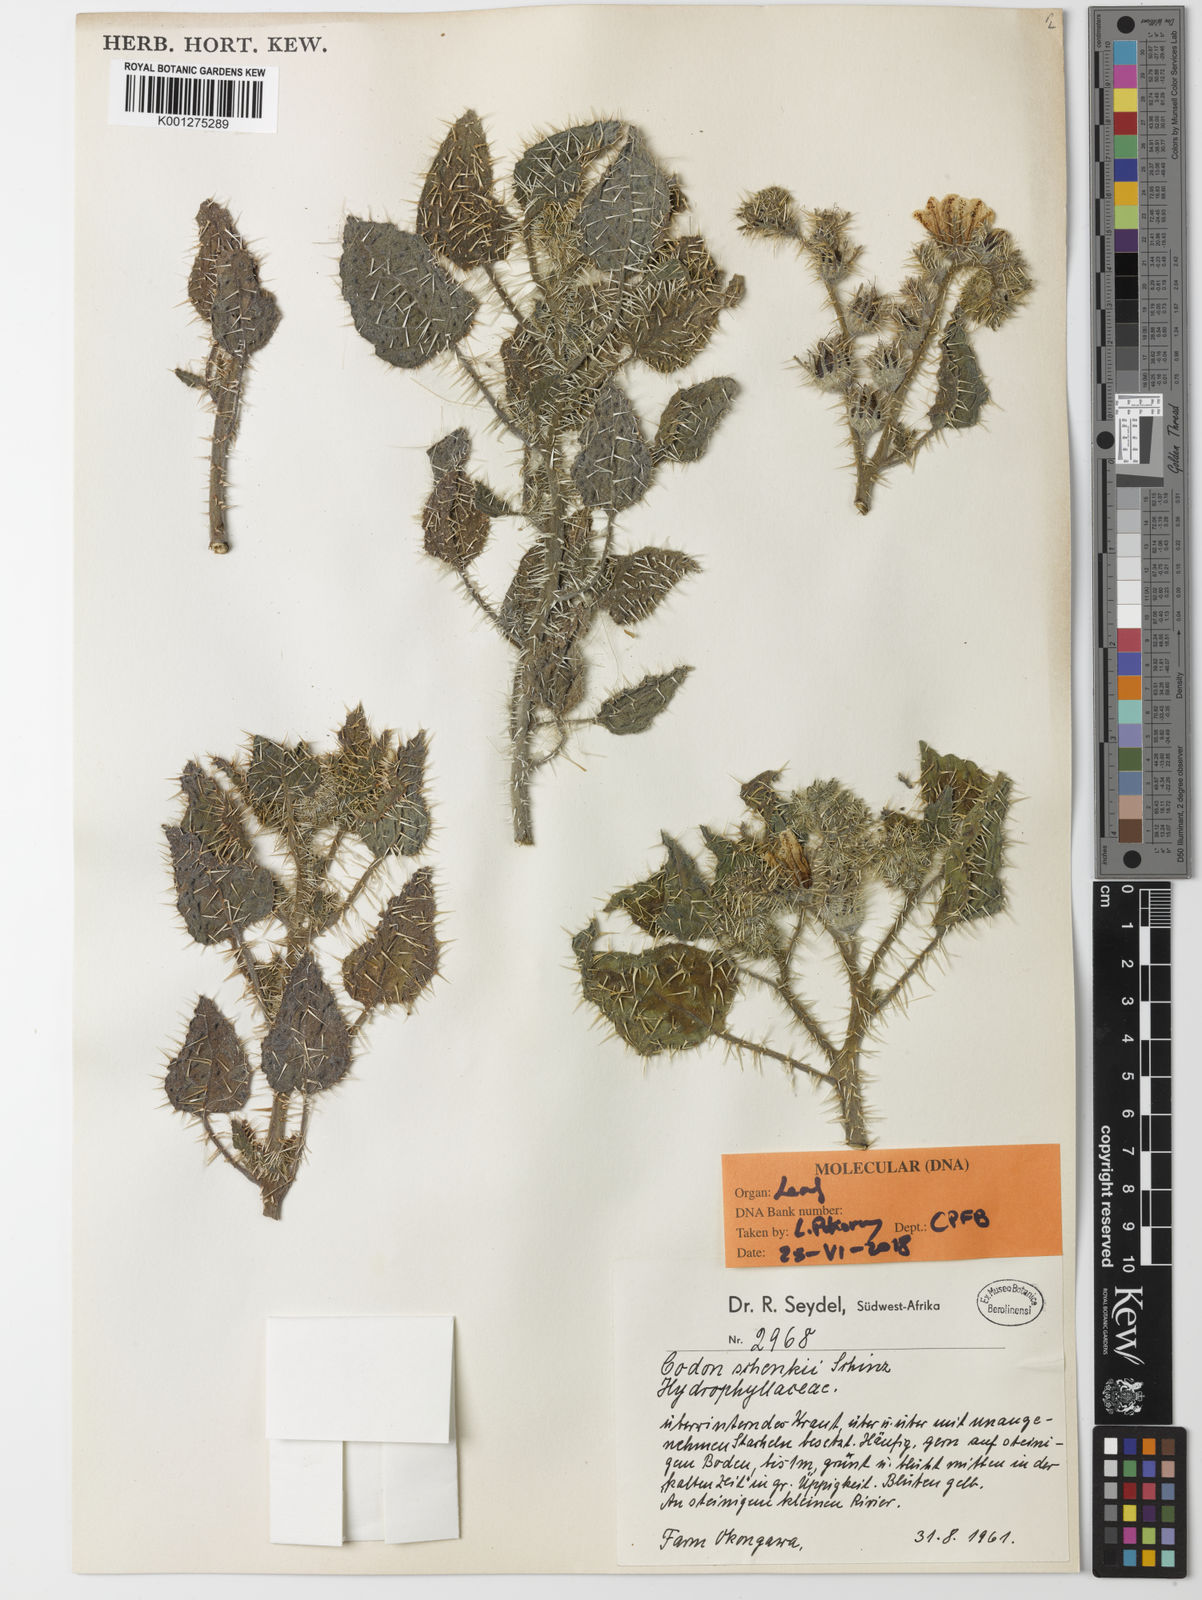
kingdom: Plantae
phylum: Tracheophyta
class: Magnoliopsida
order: Boraginales
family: Codonaceae
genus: Codon
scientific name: Codon schenckii
